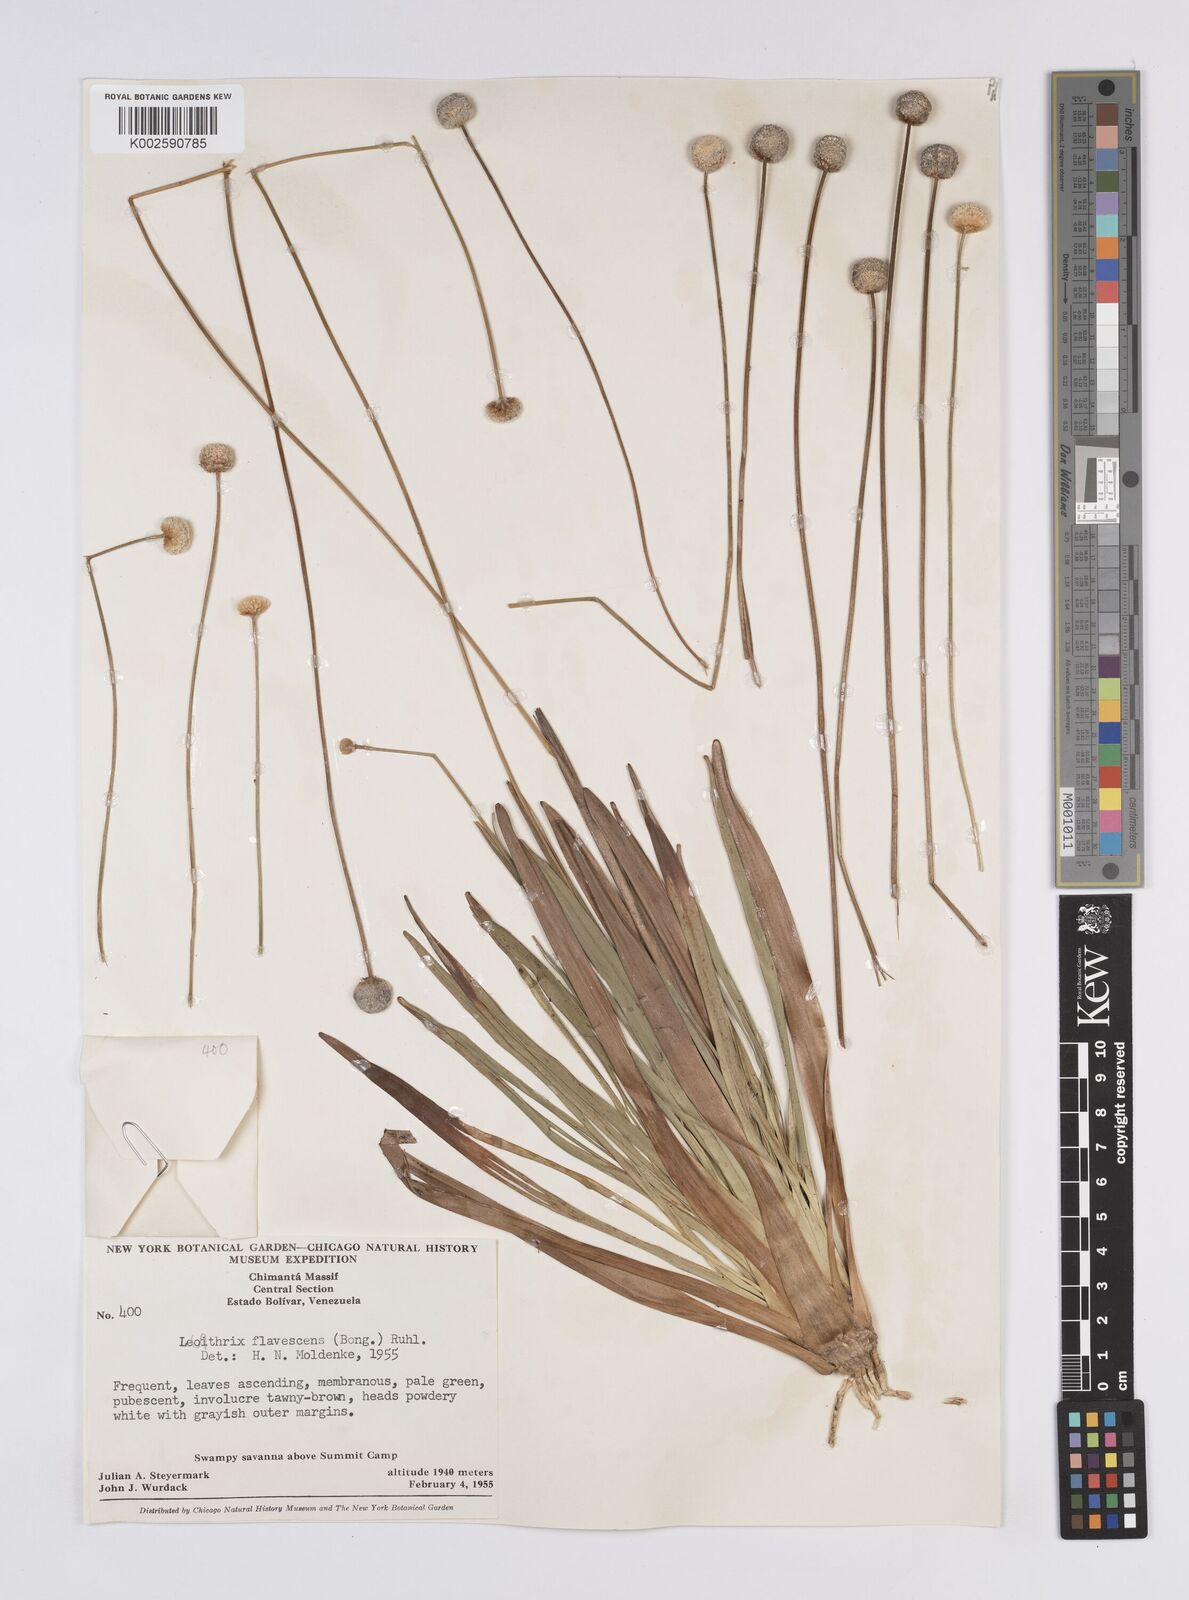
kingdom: Plantae
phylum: Tracheophyta
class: Liliopsida
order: Poales
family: Eriocaulaceae
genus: Leiothrix
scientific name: Leiothrix flavescens
